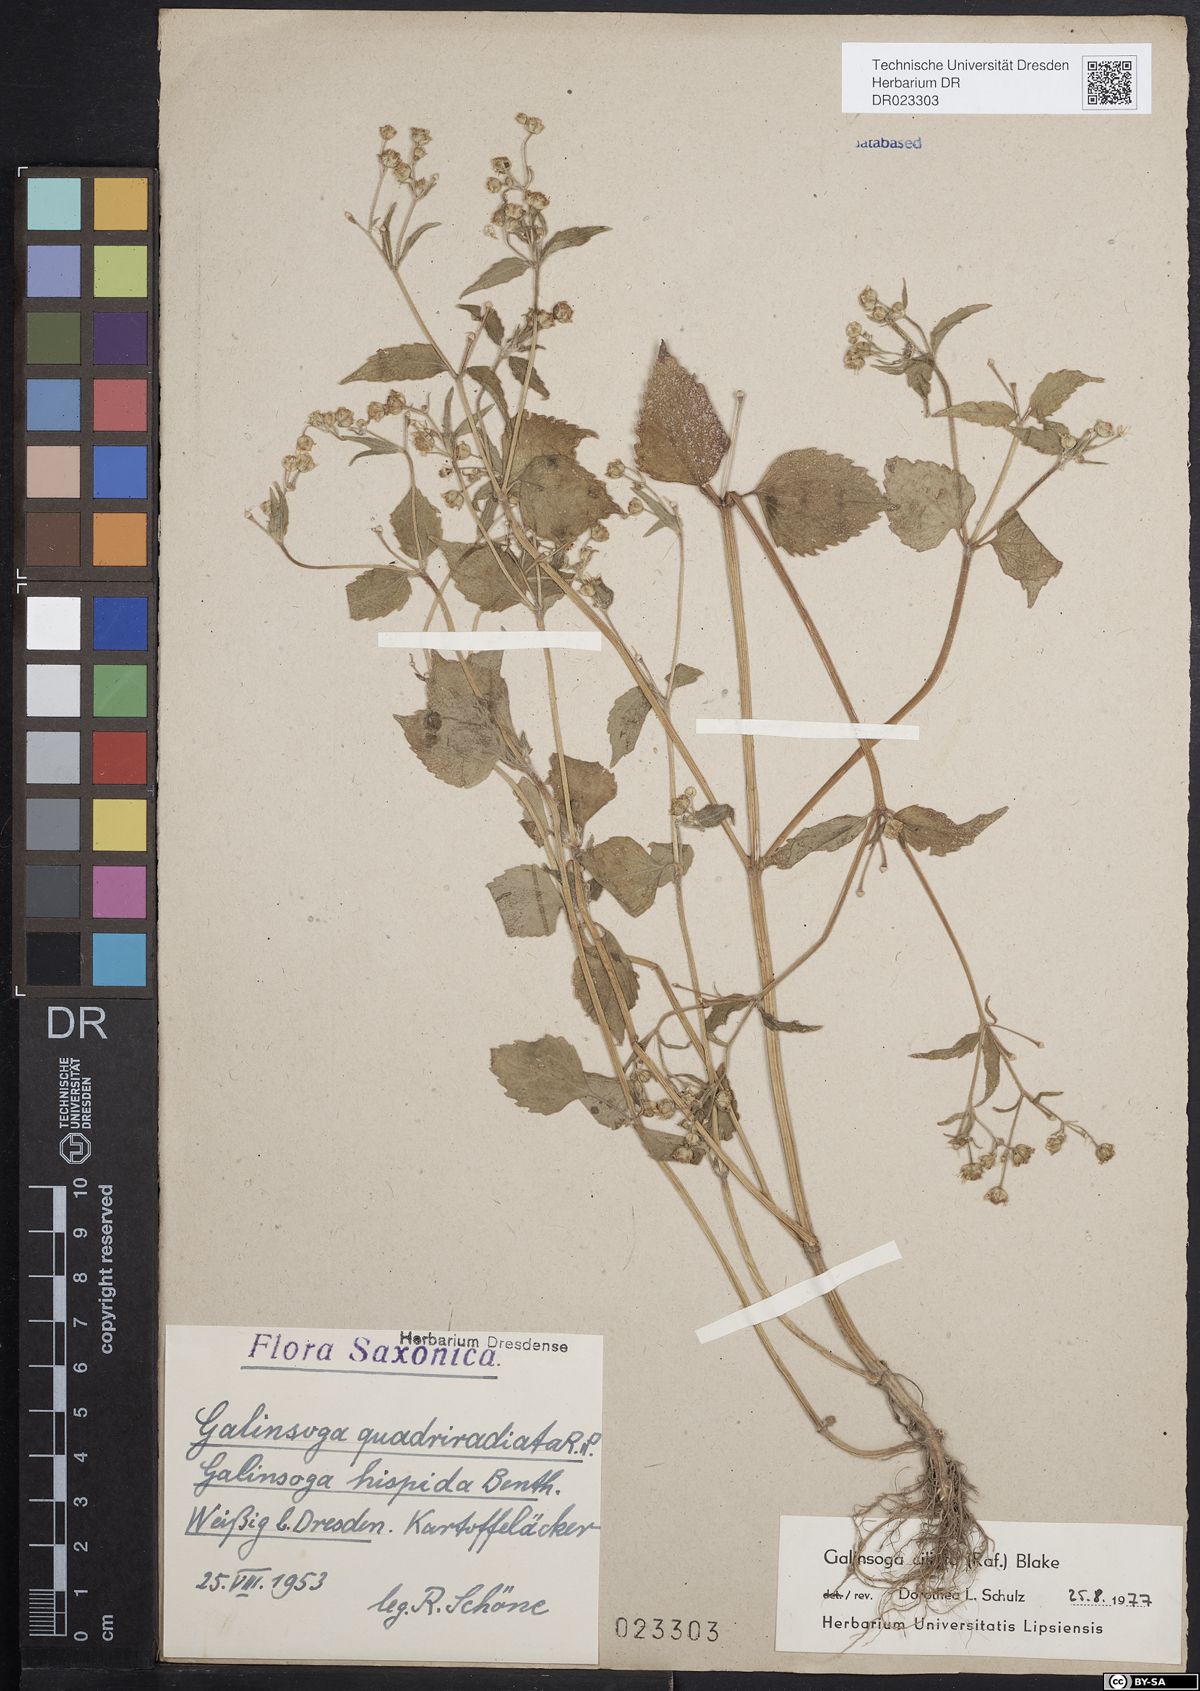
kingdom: Plantae
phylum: Tracheophyta
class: Magnoliopsida
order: Asterales
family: Asteraceae
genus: Galinsoga
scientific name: Galinsoga quadriradiata
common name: Shaggy soldier
